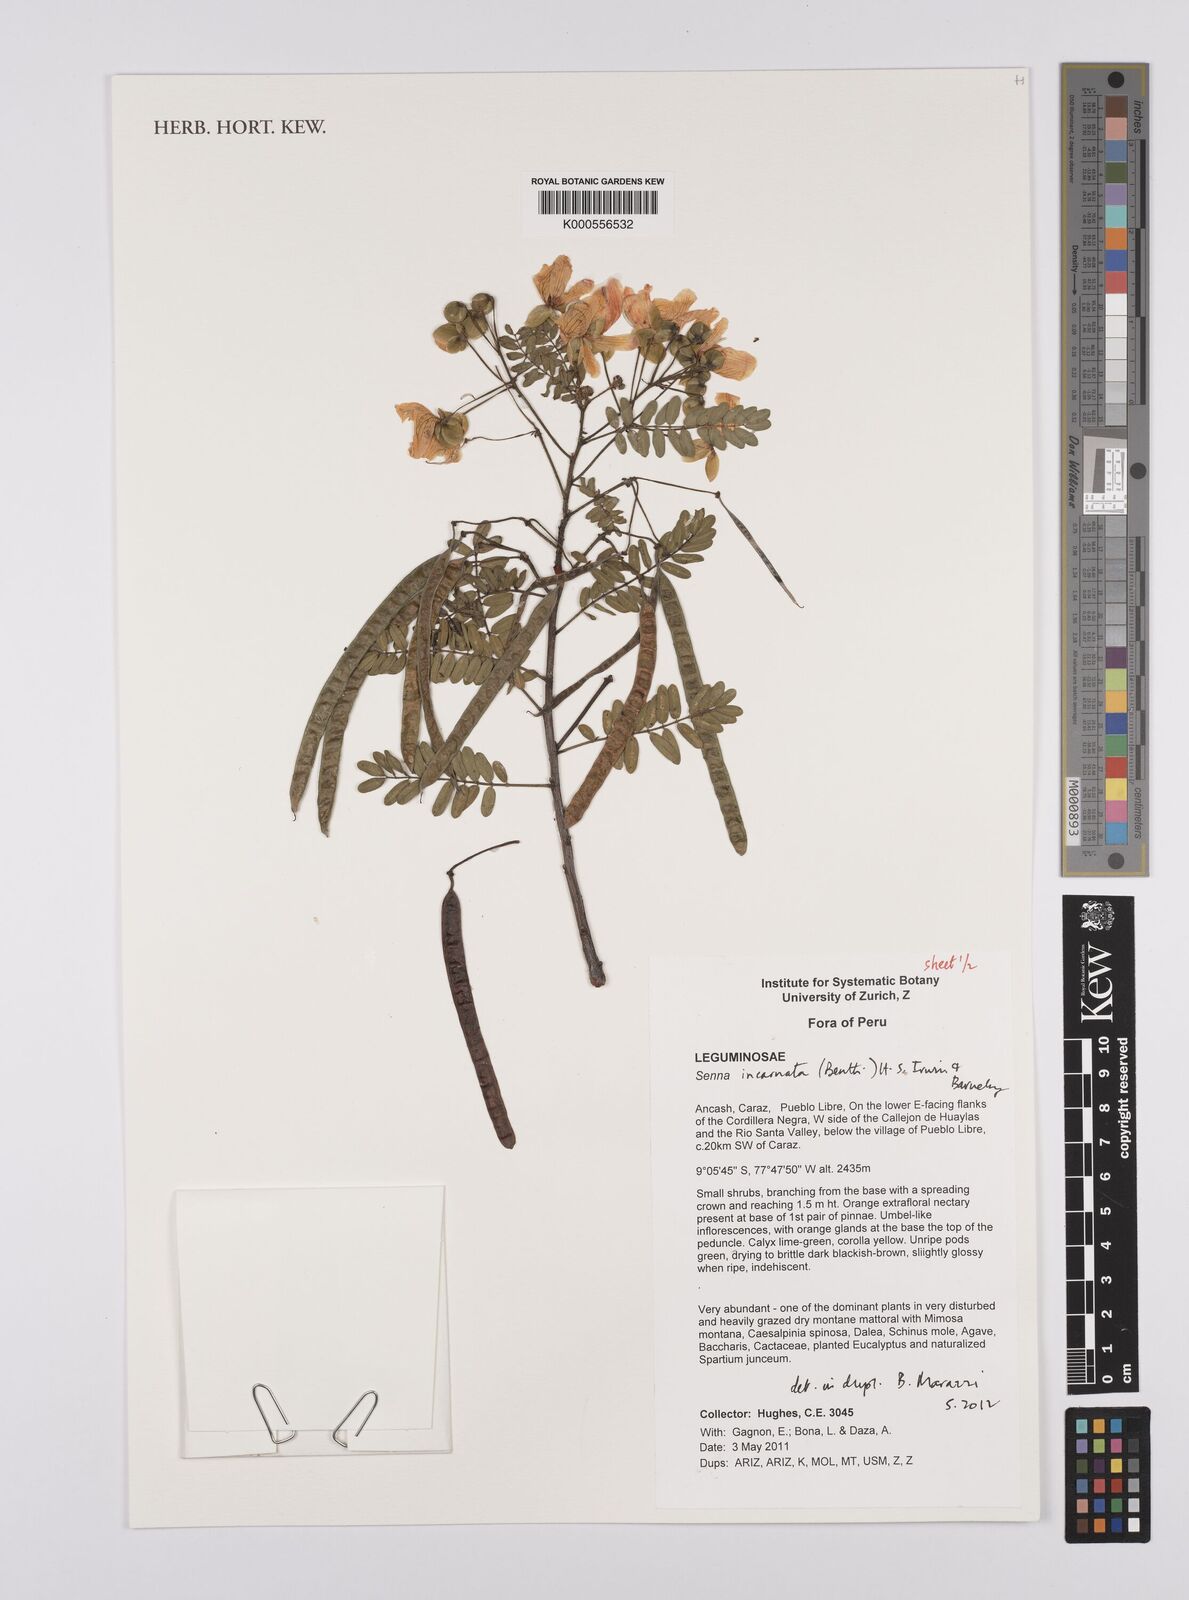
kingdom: Plantae
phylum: Tracheophyta
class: Magnoliopsida
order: Fabales
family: Fabaceae
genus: Senna
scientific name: Senna incarnata
